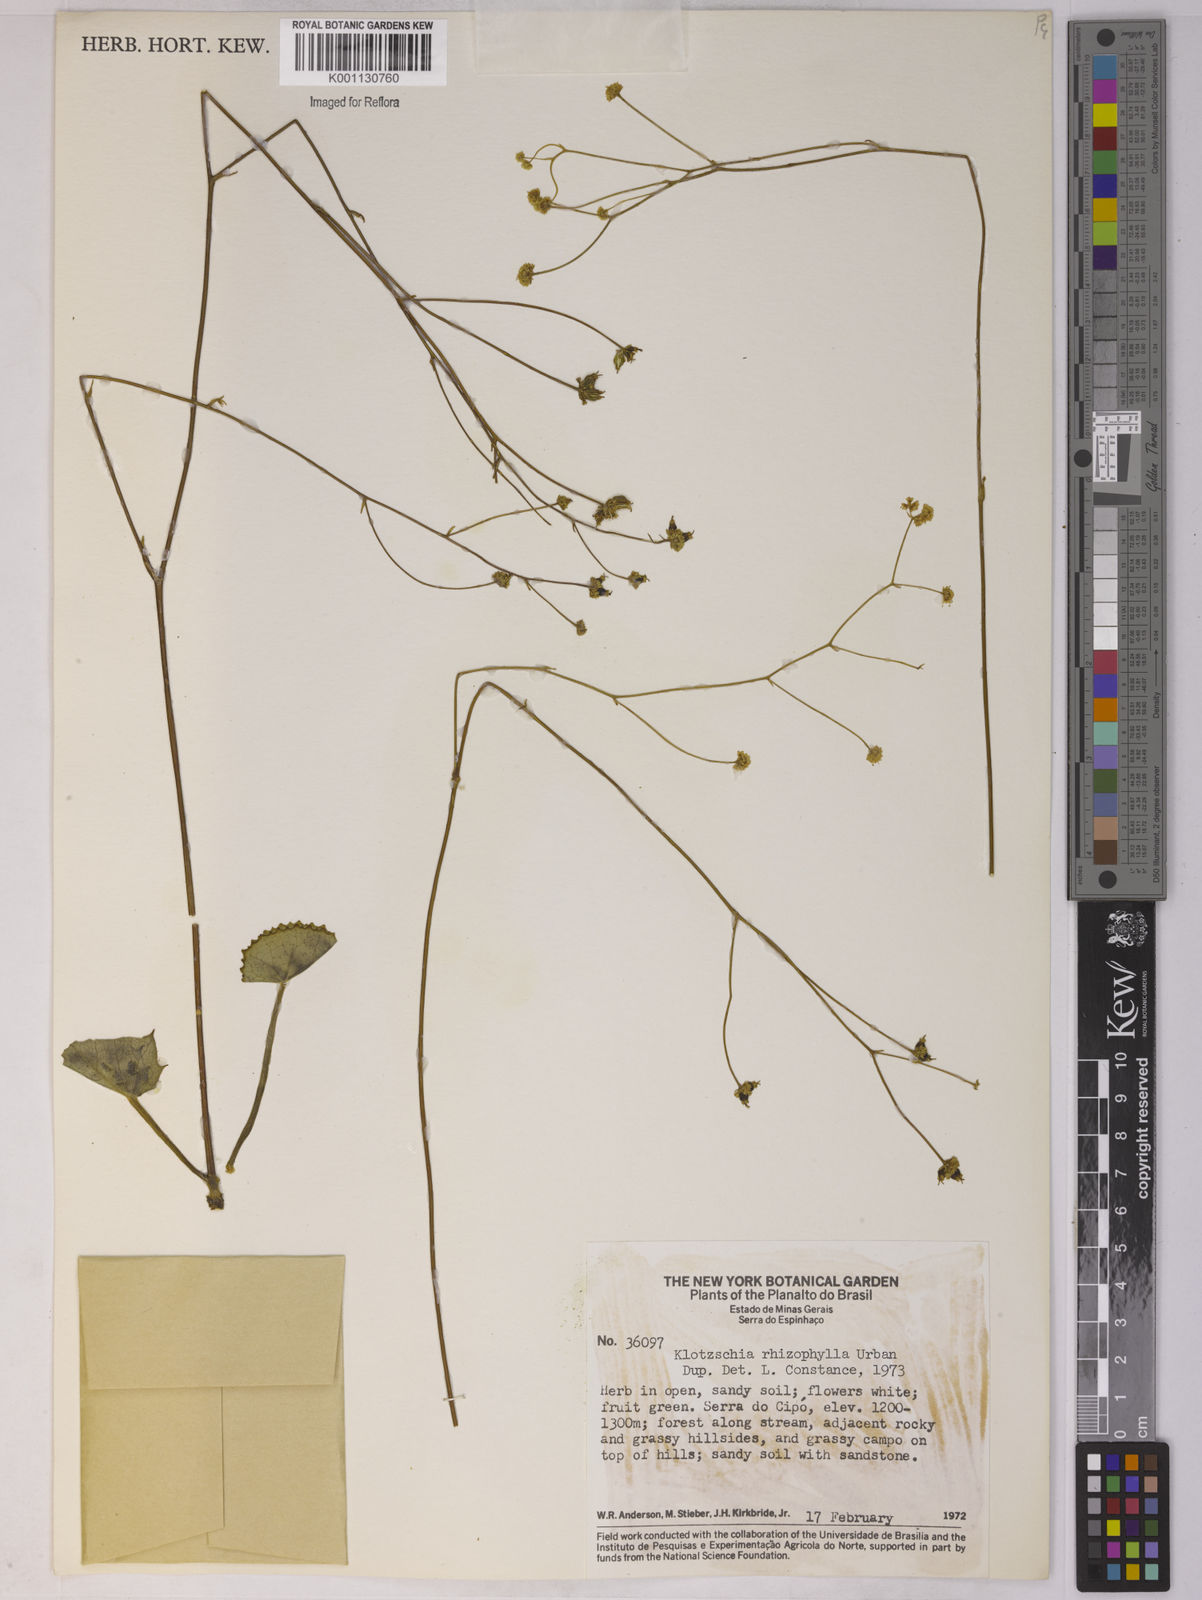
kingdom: Plantae
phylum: Tracheophyta
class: Magnoliopsida
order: Apiales
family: Apiaceae
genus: Klotzschia
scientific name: Klotzschia rhizophylla
